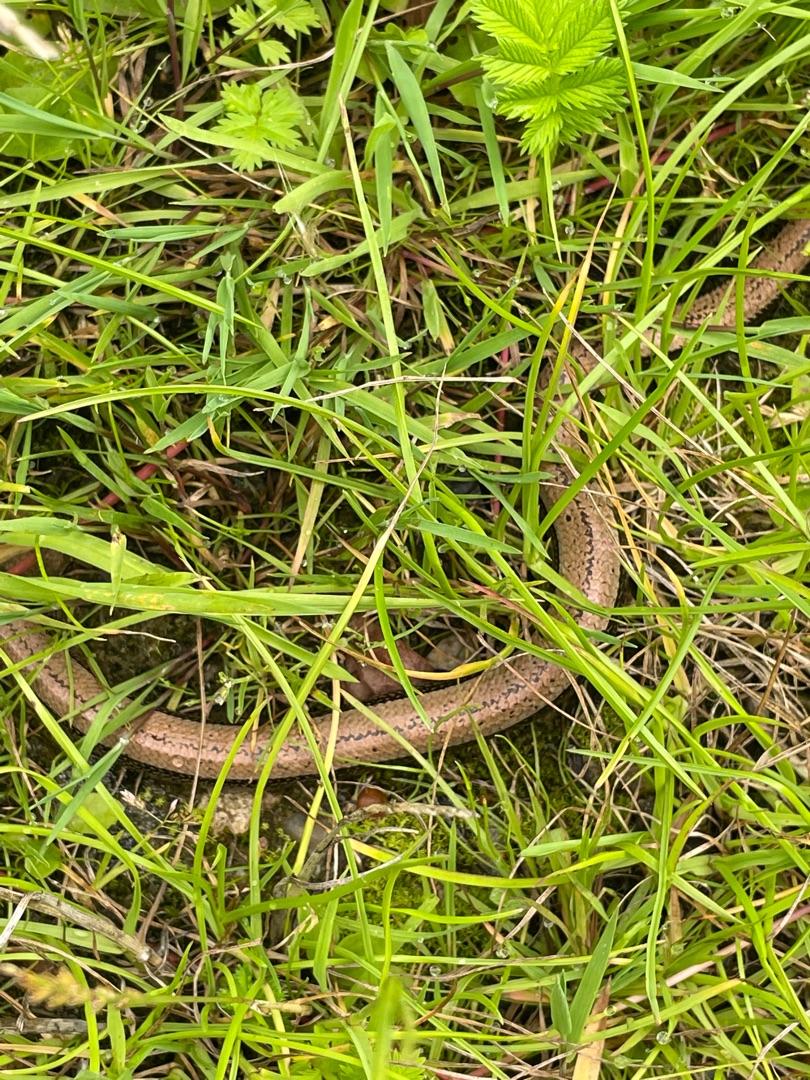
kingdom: Animalia
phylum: Chordata
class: Squamata
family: Anguidae
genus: Anguis
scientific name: Anguis fragilis
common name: Stålorm
